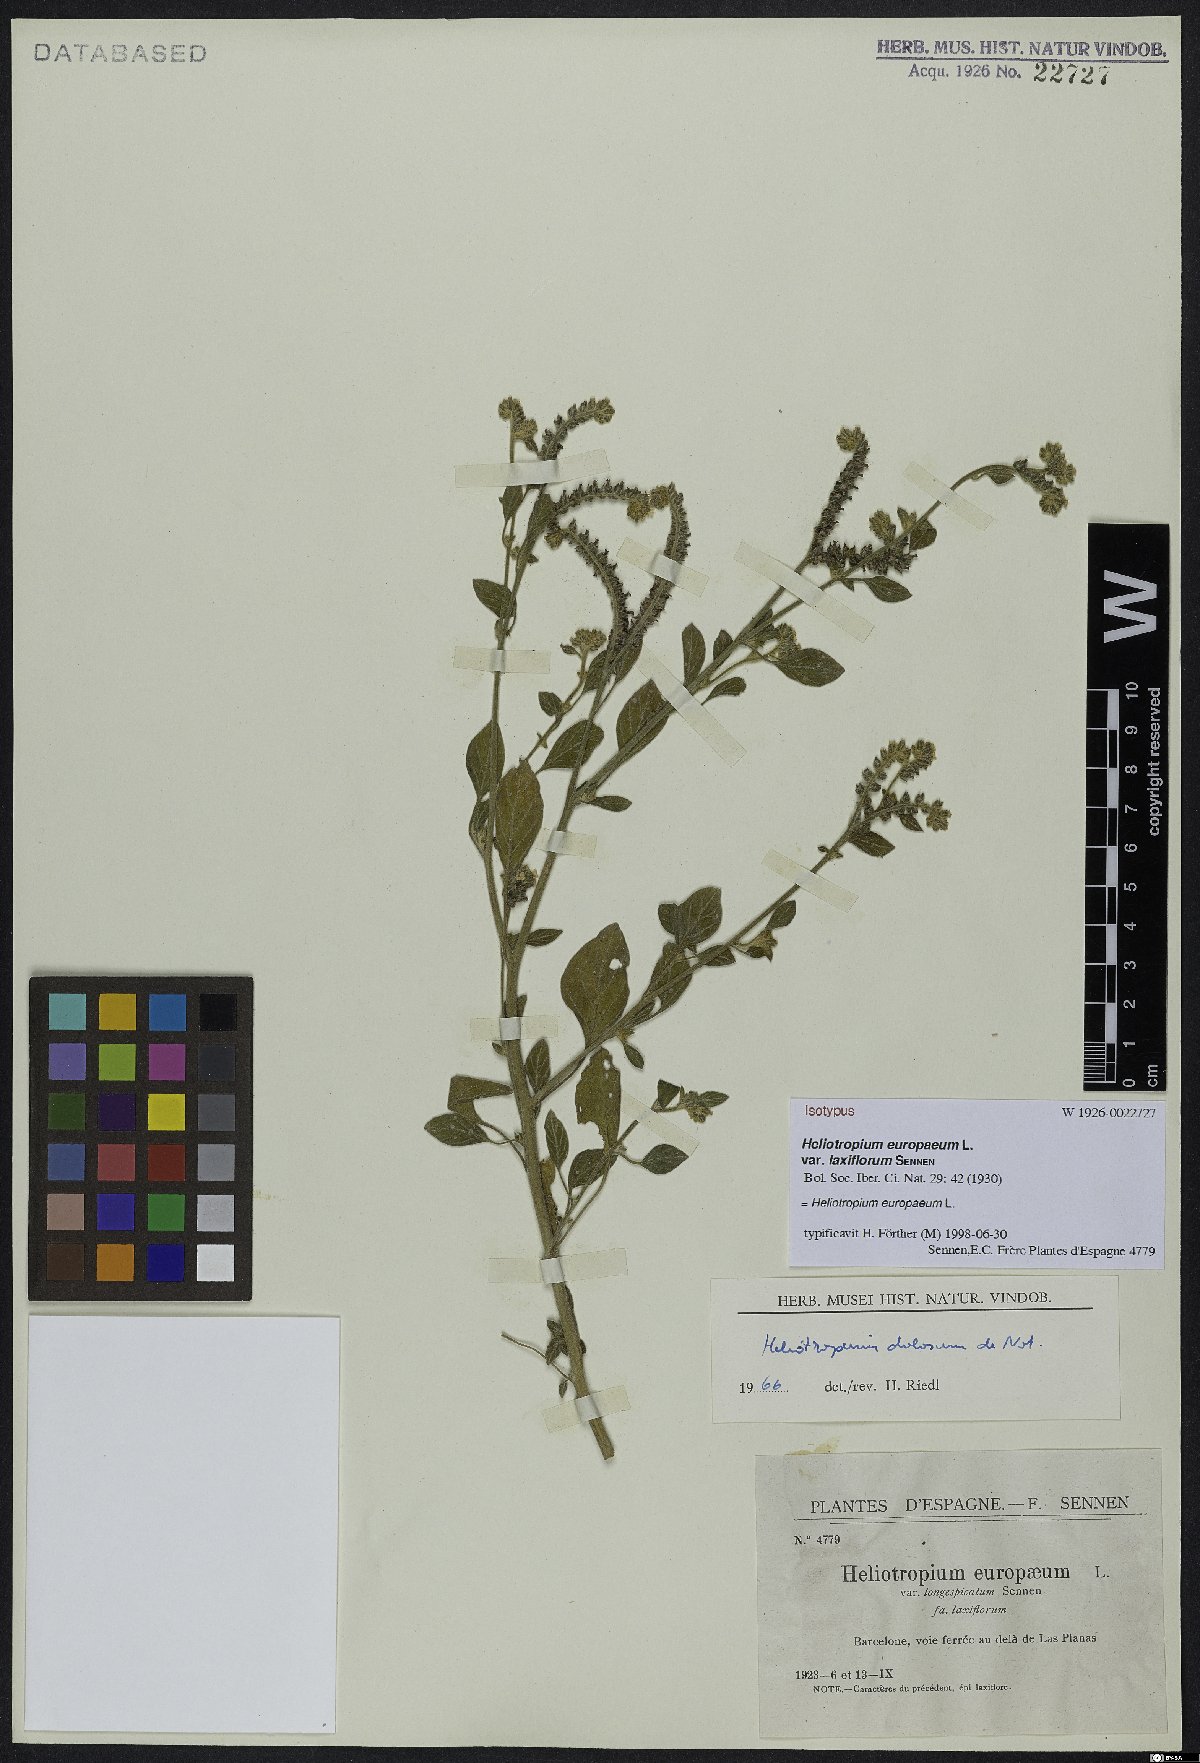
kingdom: Plantae
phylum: Tracheophyta
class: Magnoliopsida
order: Boraginales
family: Heliotropiaceae
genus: Heliotropium
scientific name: Heliotropium europaeum
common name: European heliotrope
